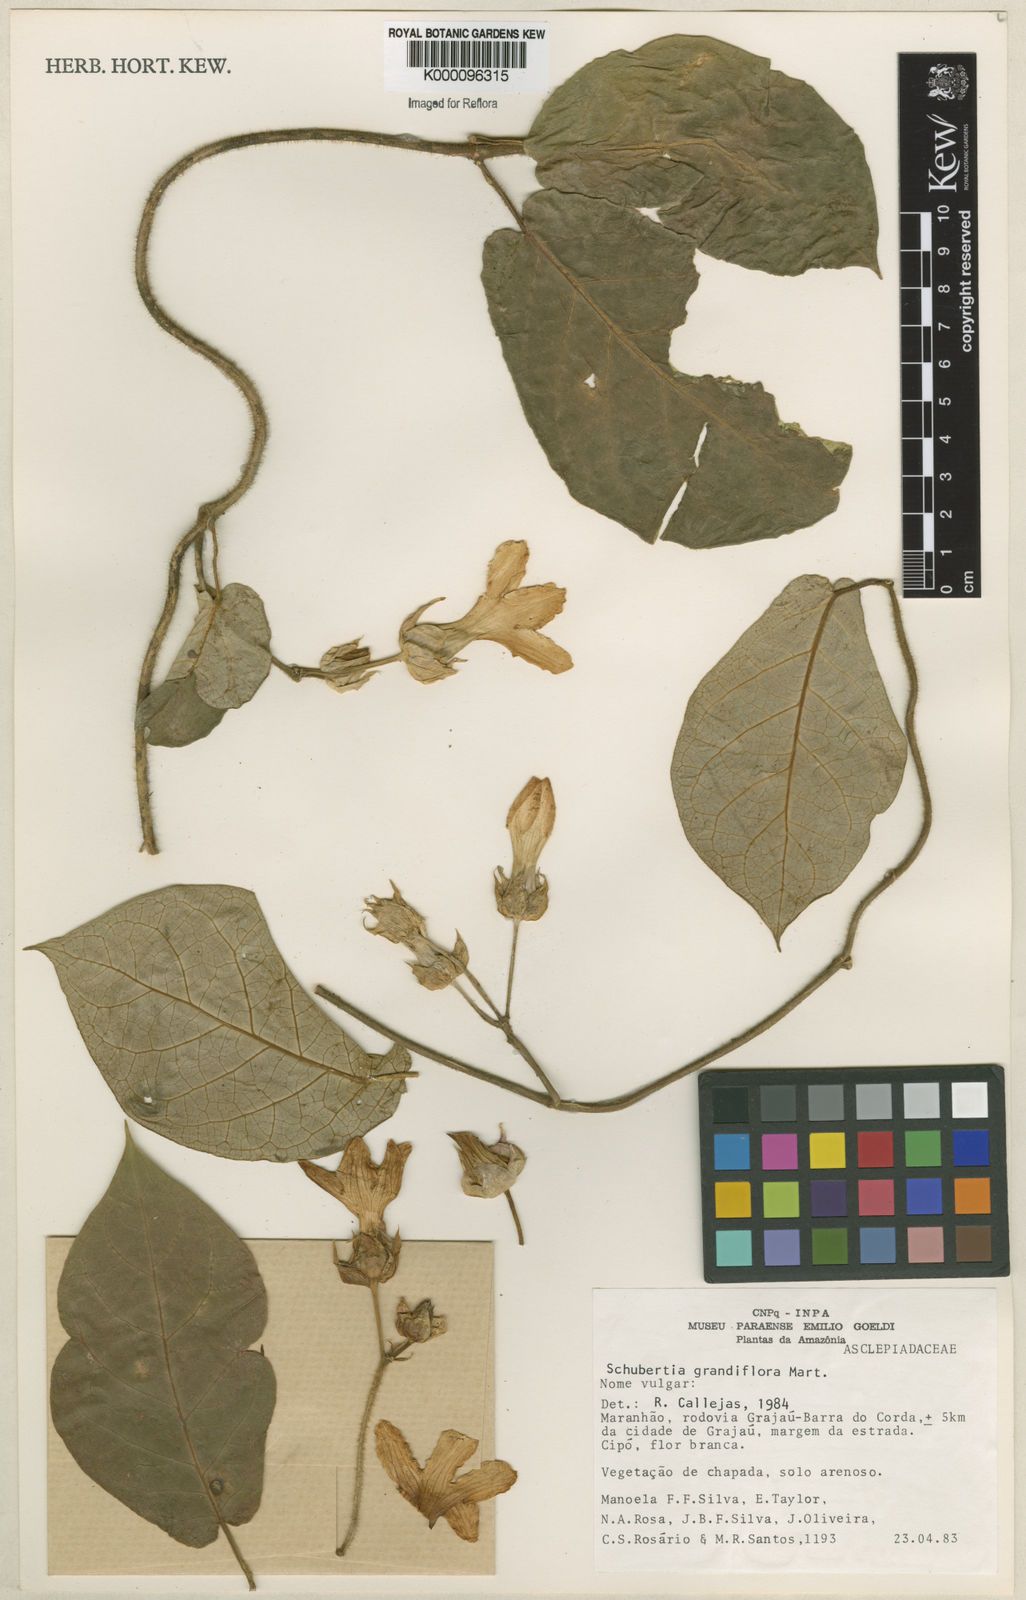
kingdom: Plantae
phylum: Tracheophyta
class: Magnoliopsida
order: Gentianales
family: Apocynaceae
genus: Macroscepis
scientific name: Macroscepis grandiflora
